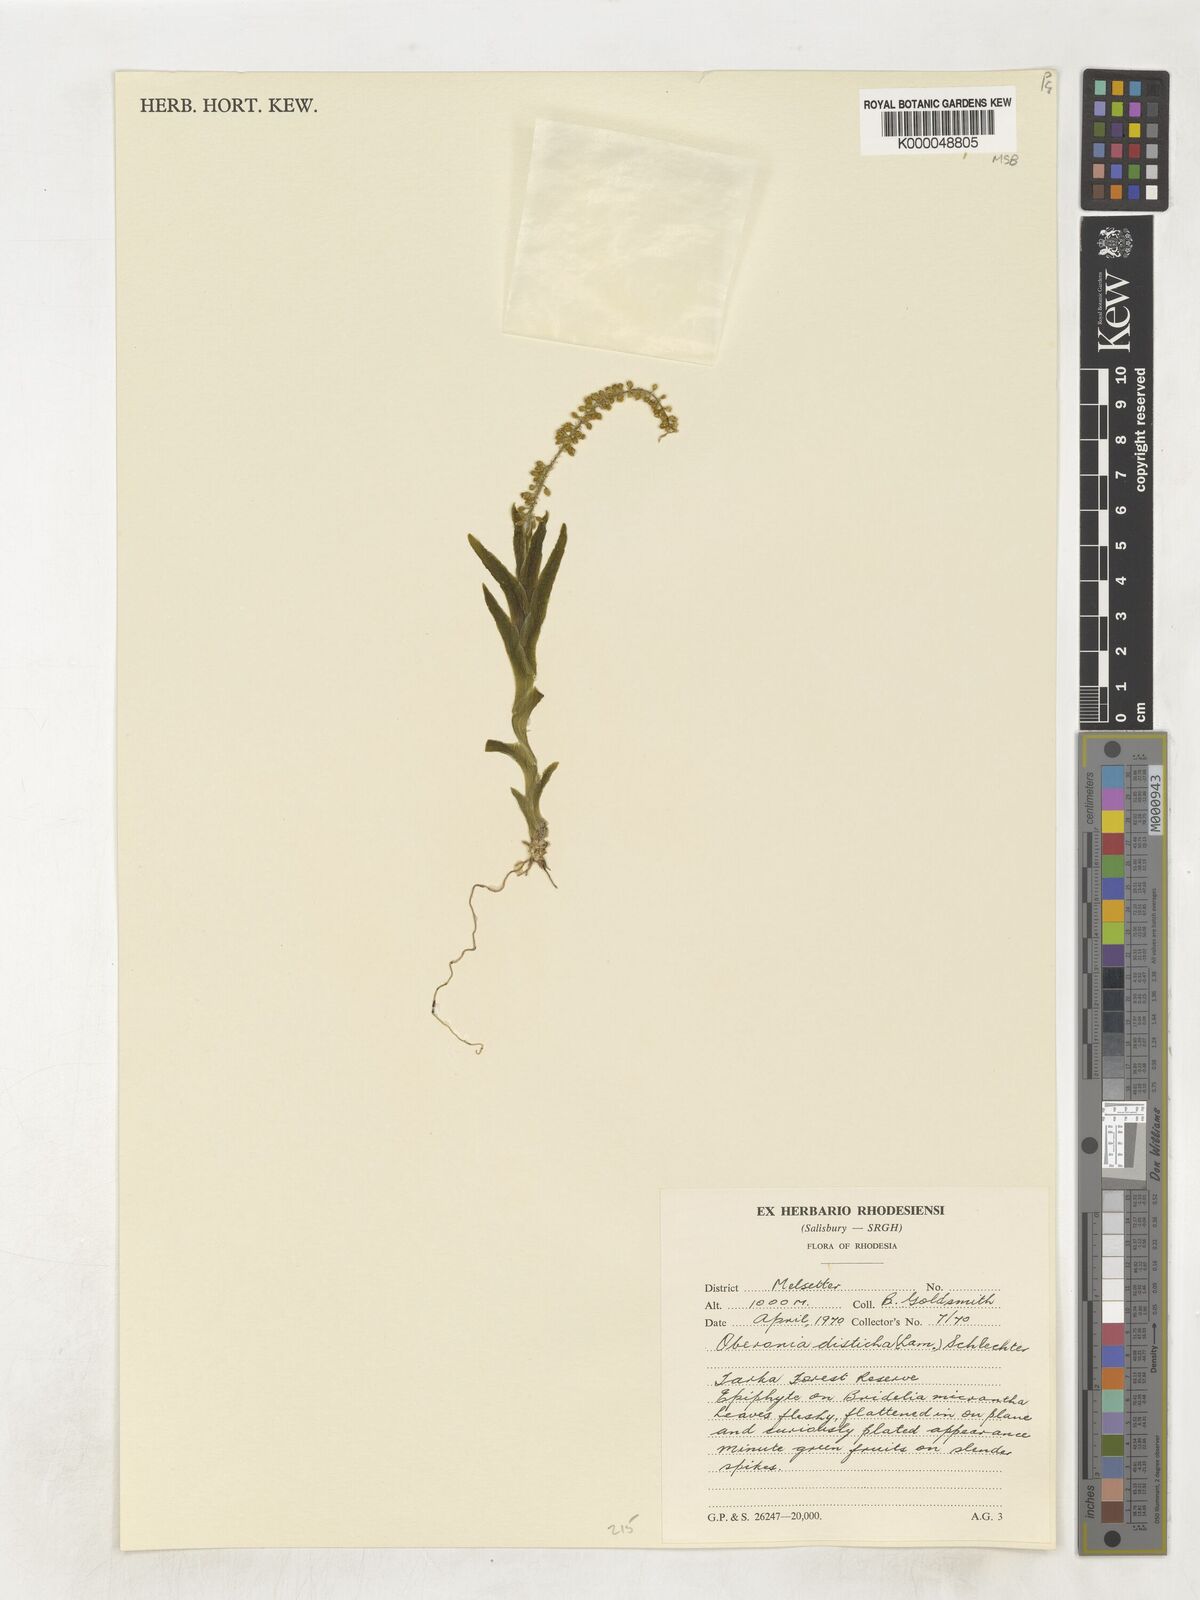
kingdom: Plantae
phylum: Tracheophyta
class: Liliopsida
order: Asparagales
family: Orchidaceae
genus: Oberonia
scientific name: Oberonia disticha
